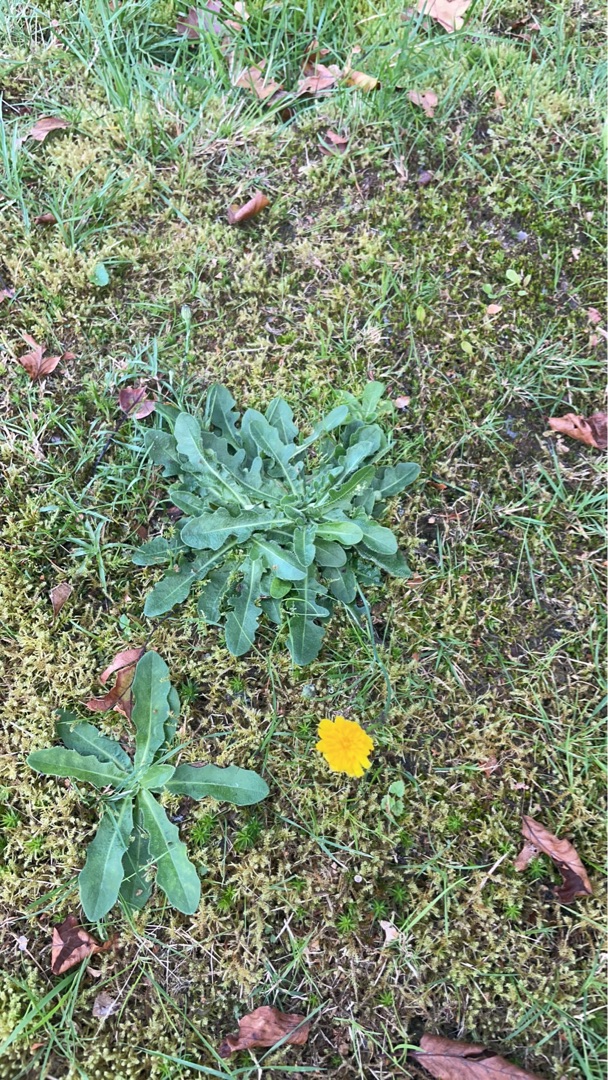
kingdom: Plantae
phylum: Tracheophyta
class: Magnoliopsida
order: Asterales
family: Asteraceae
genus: Hypochaeris
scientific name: Hypochaeris radicata
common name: Almindelig kongepen
